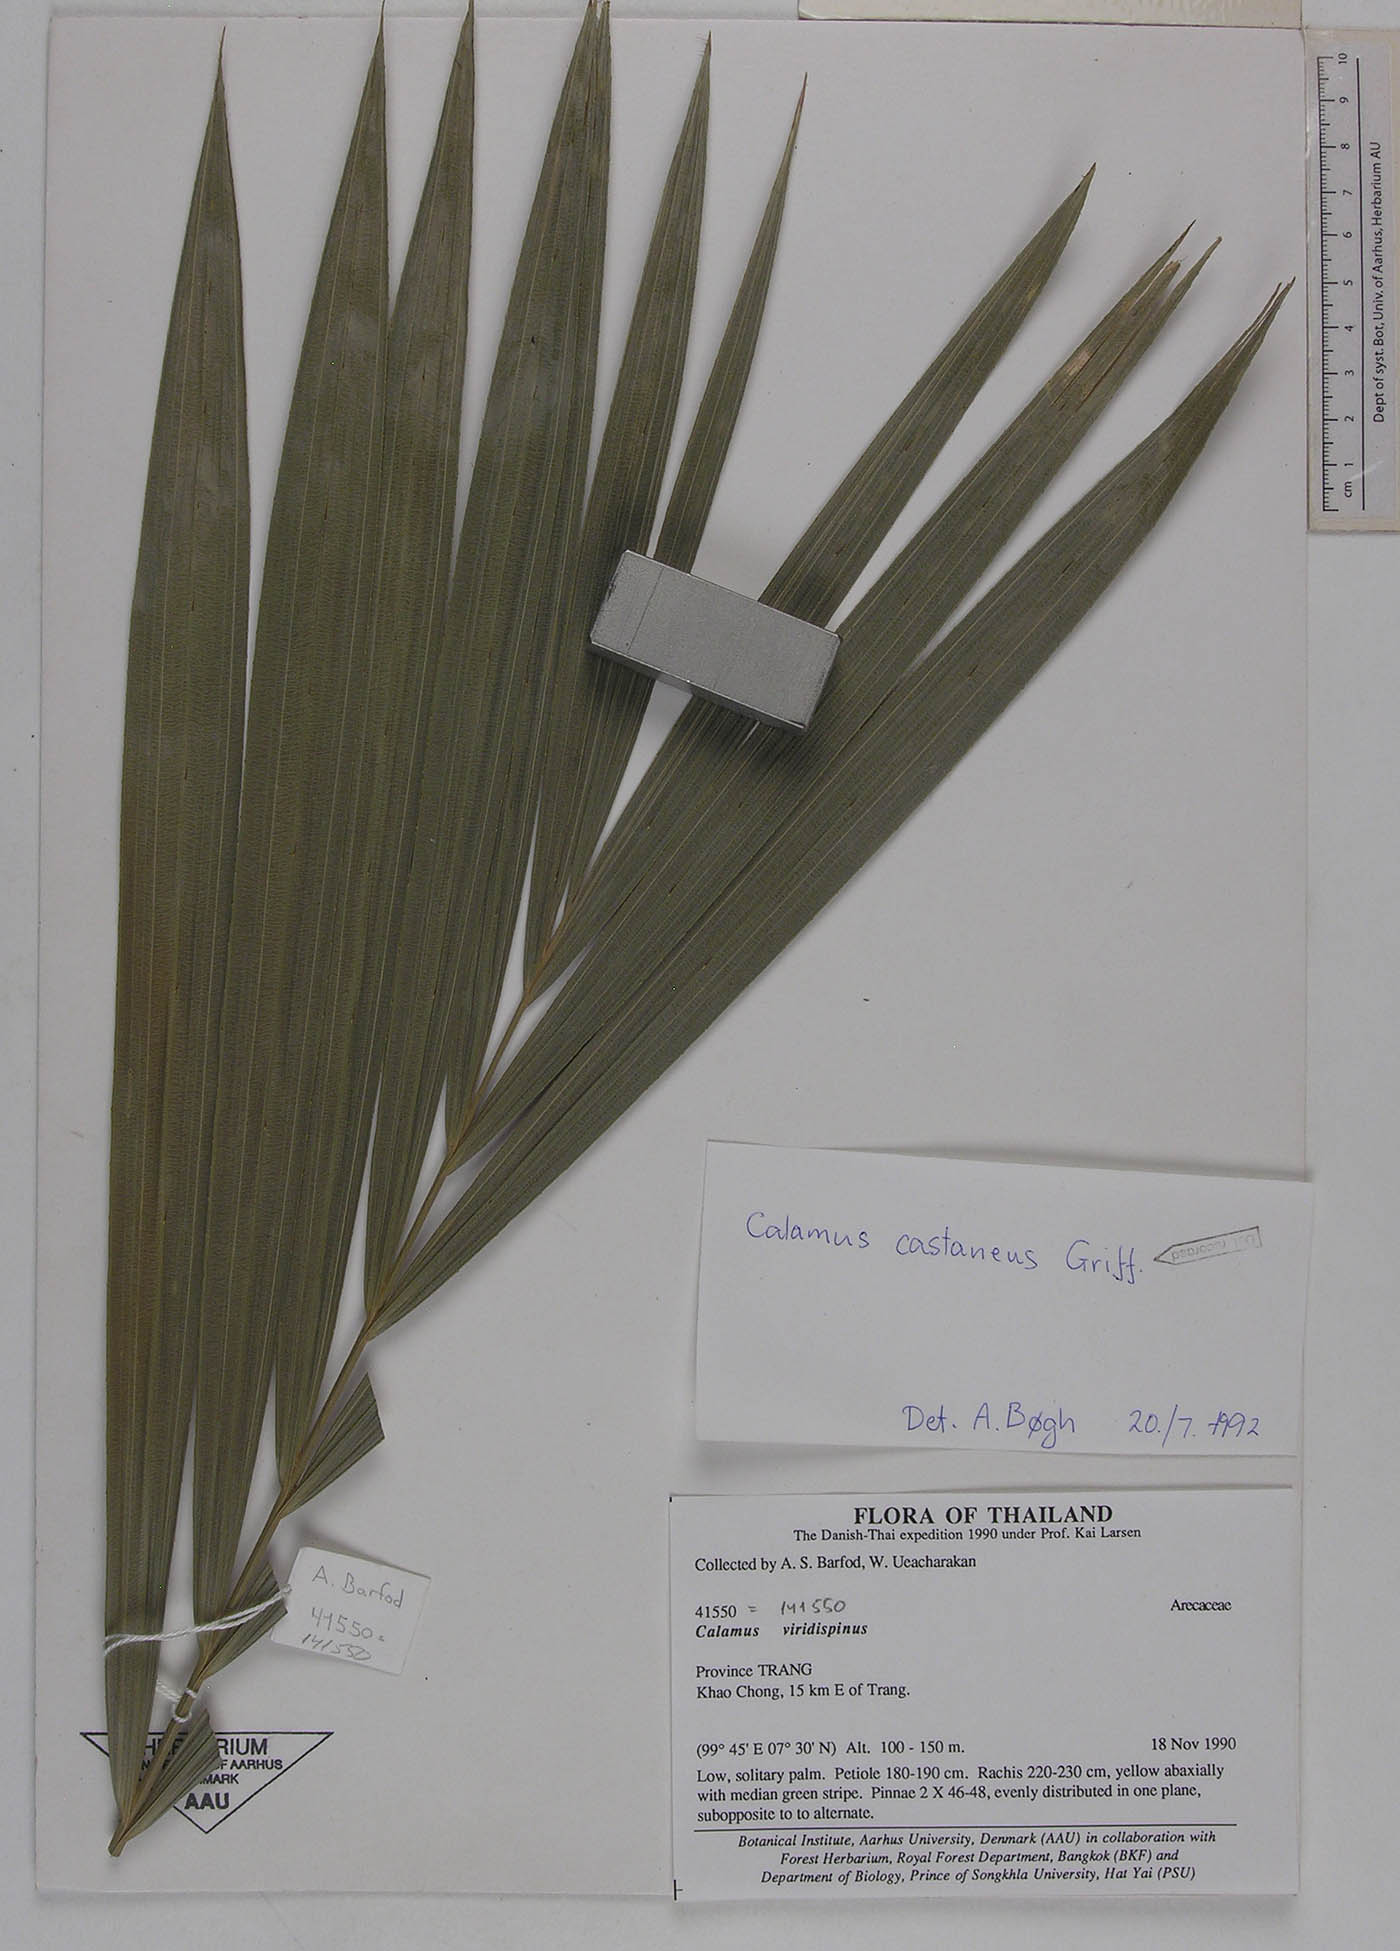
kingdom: Plantae
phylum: Tracheophyta
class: Liliopsida
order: Arecales
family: Arecaceae
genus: Calamus
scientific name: Calamus castaneus
